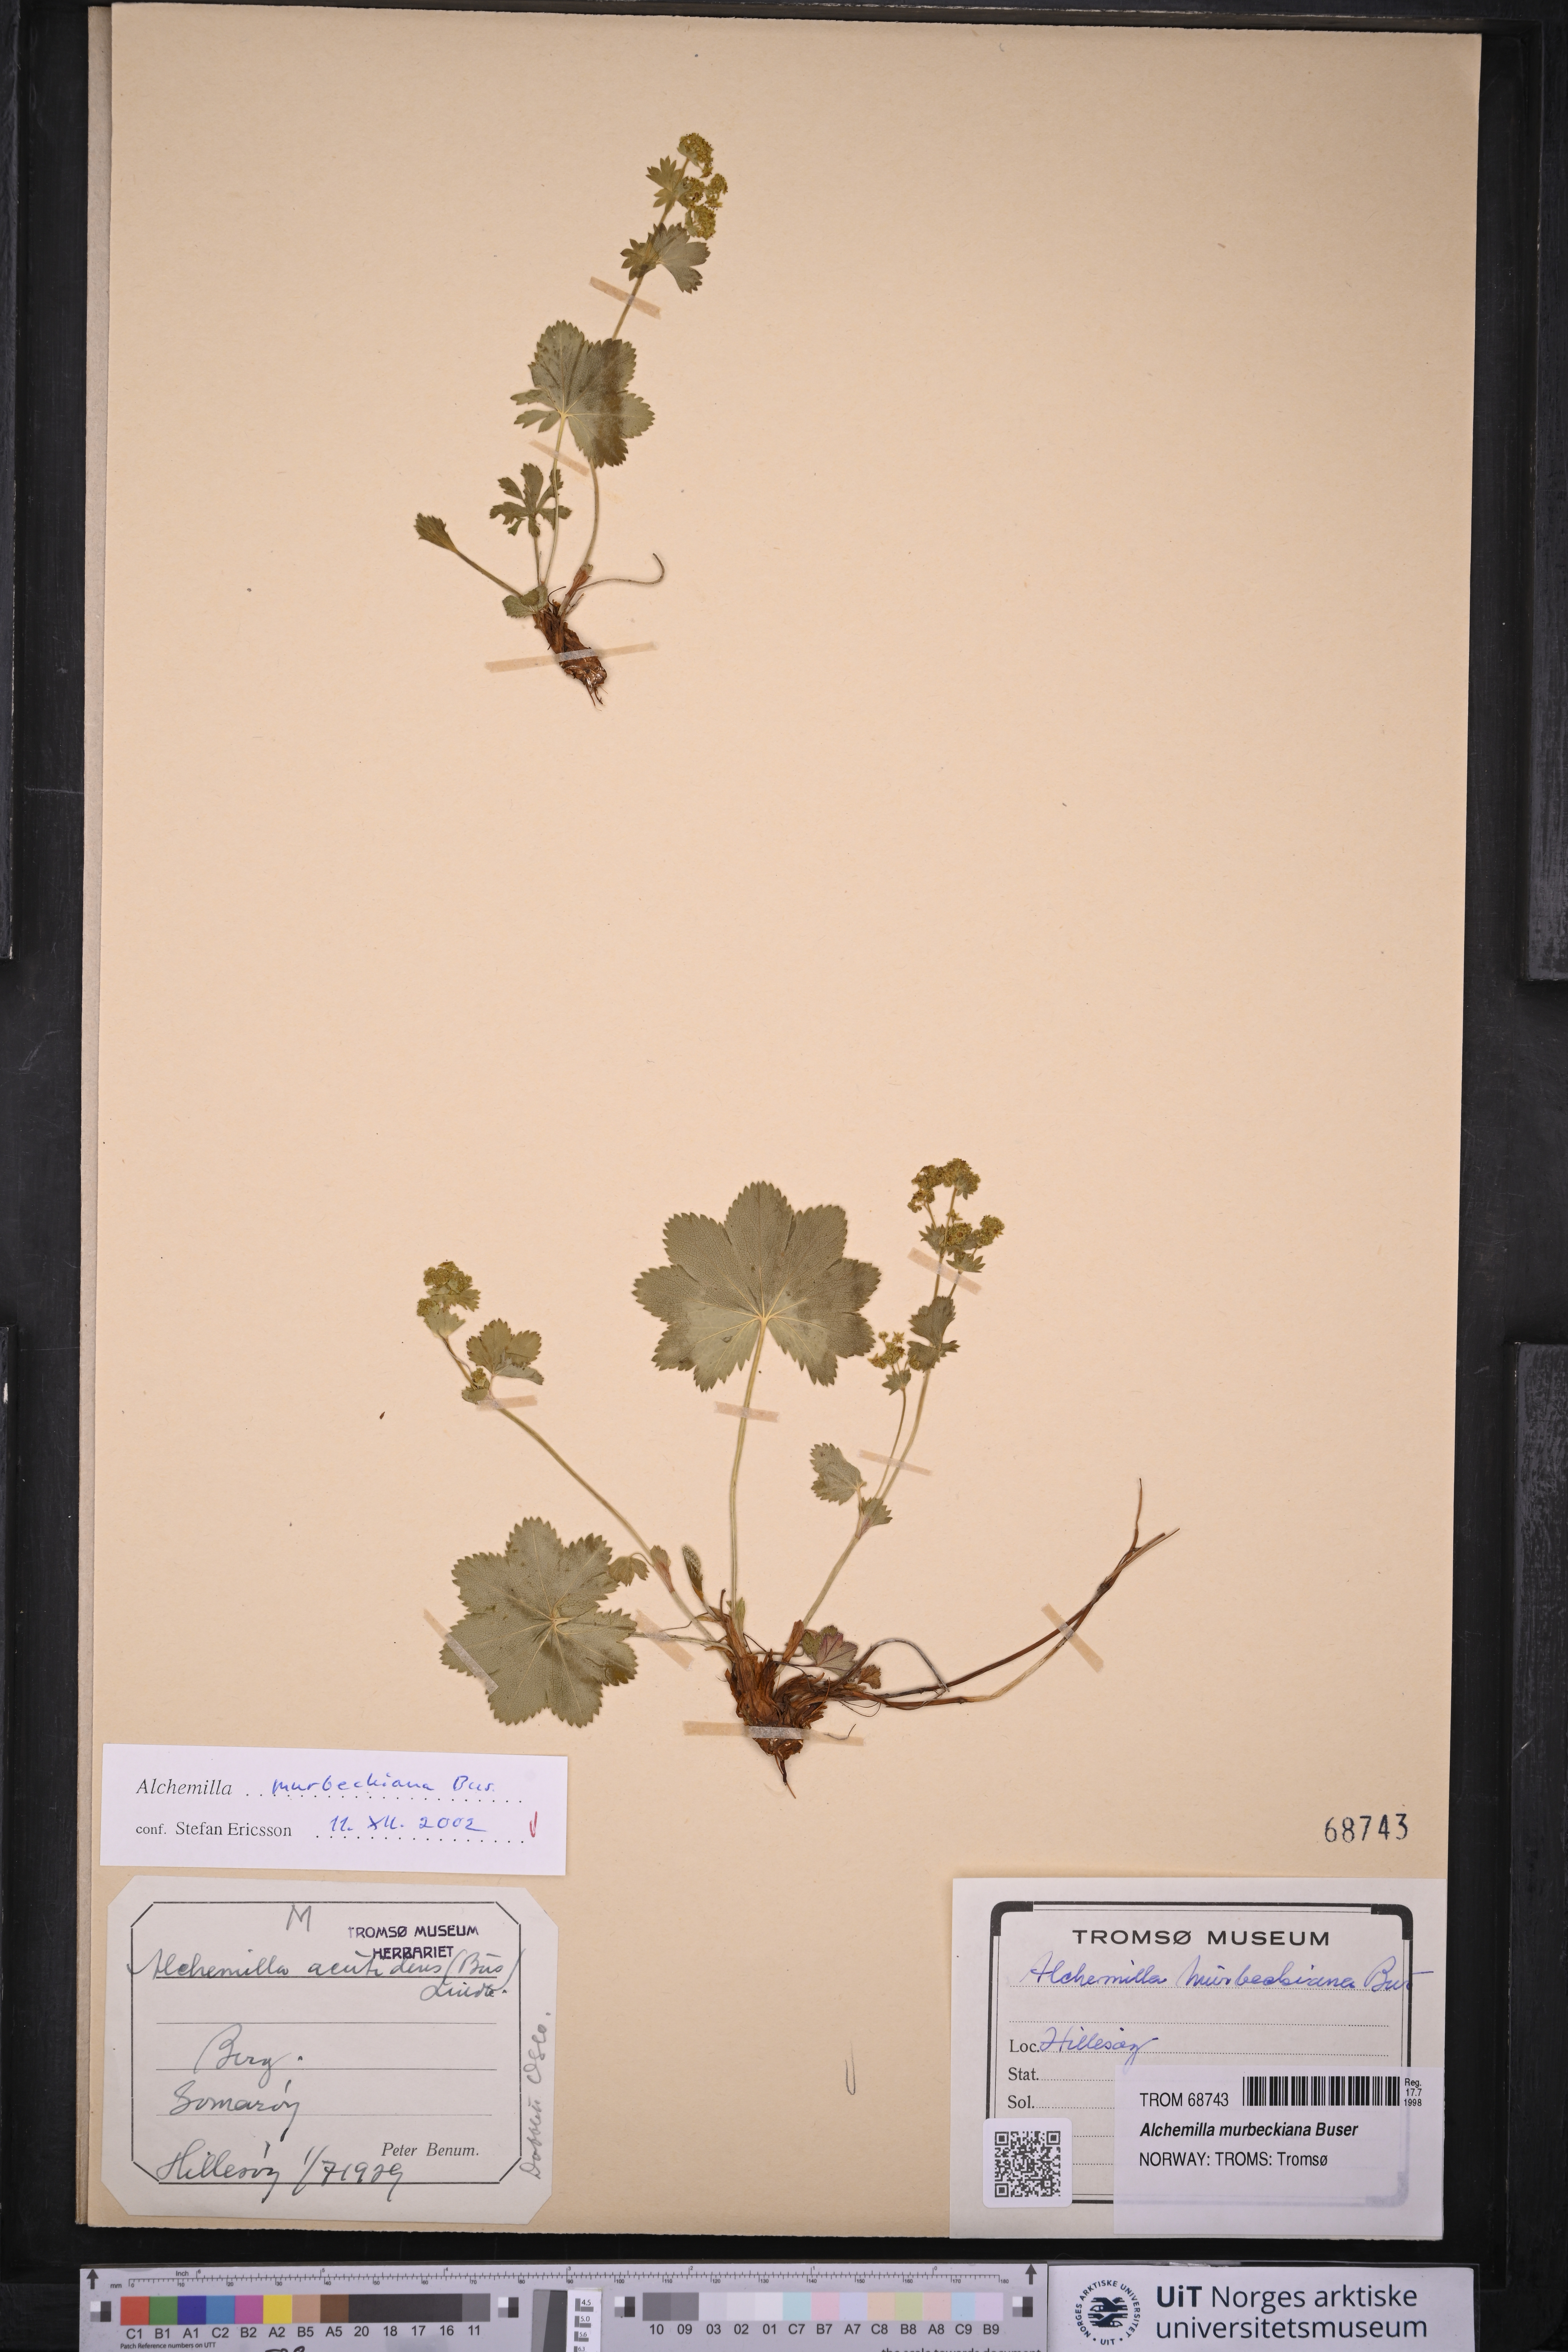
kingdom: Plantae
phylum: Tracheophyta
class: Magnoliopsida
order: Rosales
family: Rosaceae
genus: Alchemilla
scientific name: Alchemilla acutidens
